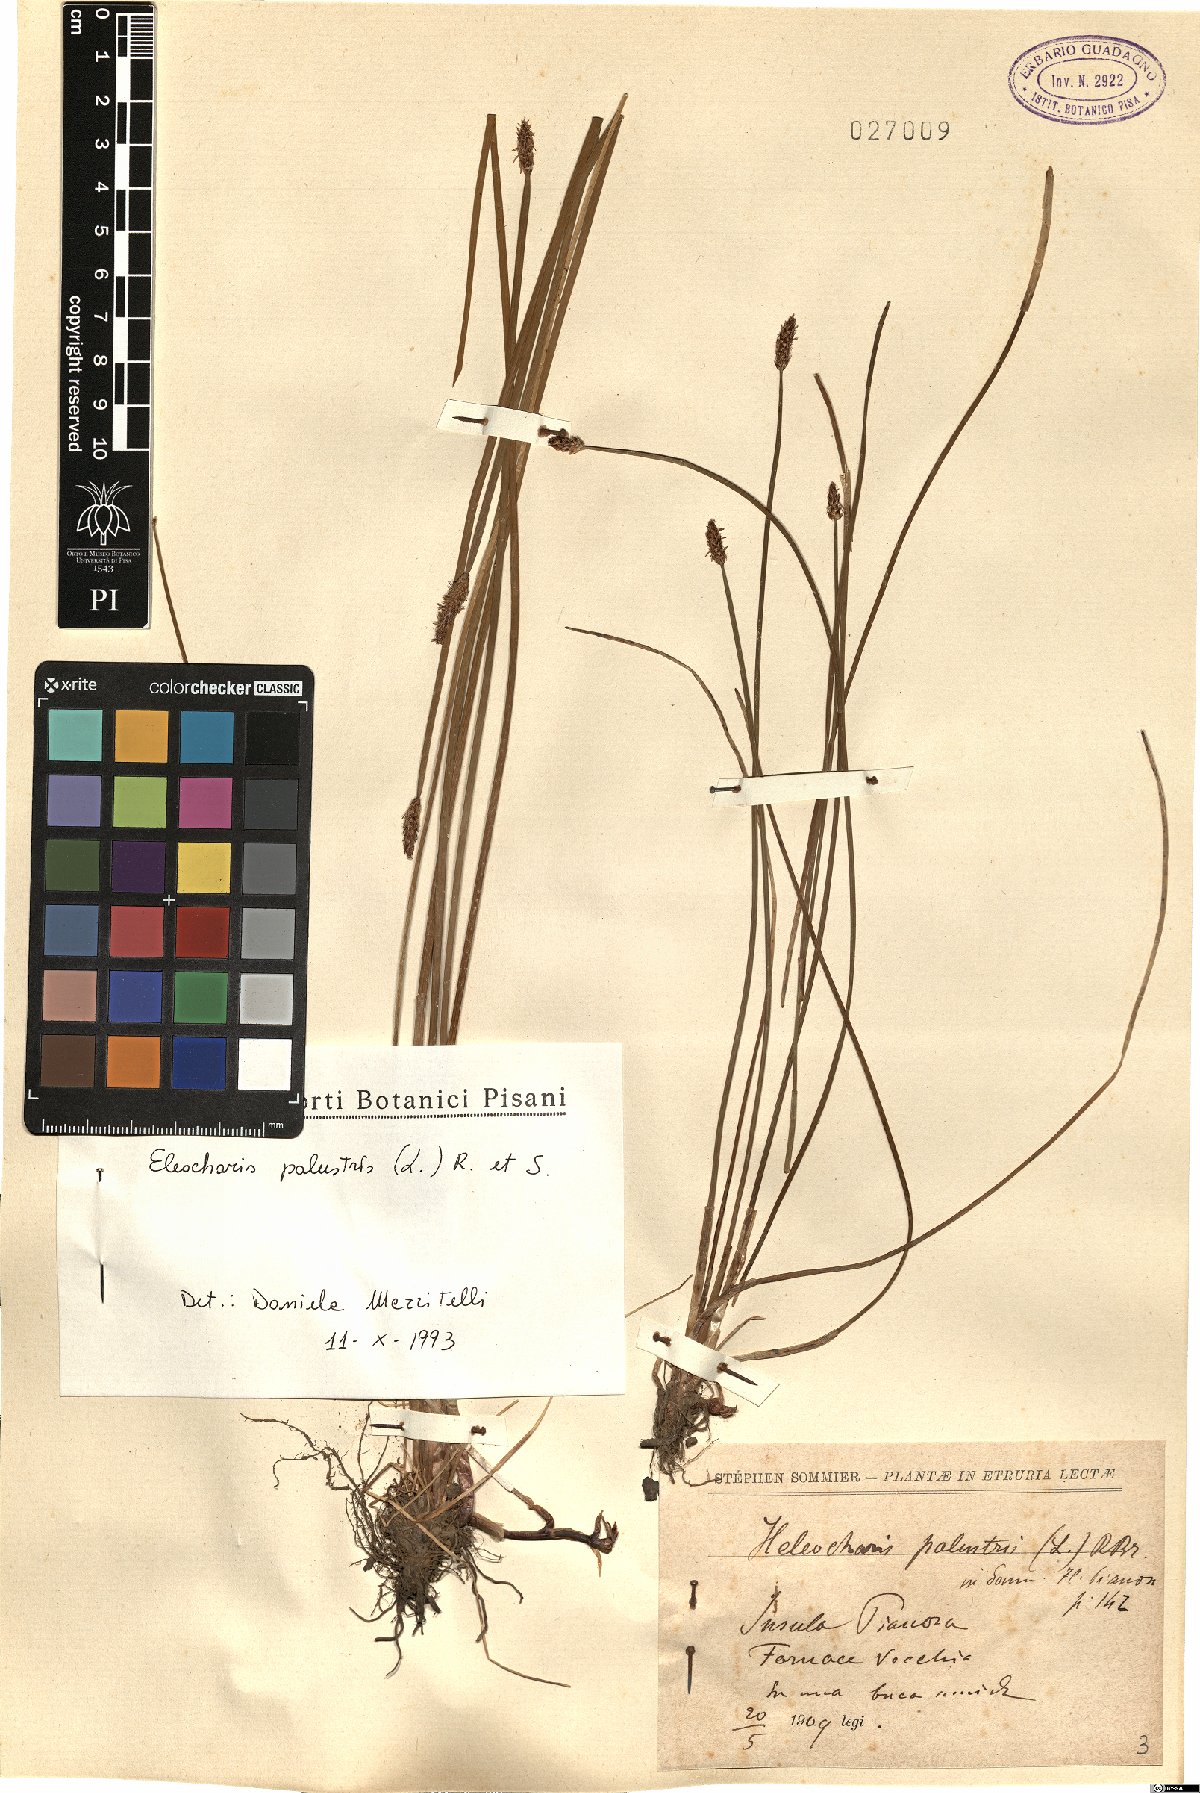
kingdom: Plantae
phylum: Tracheophyta
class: Liliopsida
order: Poales
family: Cyperaceae
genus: Eleocharis
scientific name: Eleocharis palustris
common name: Common spike-rush
